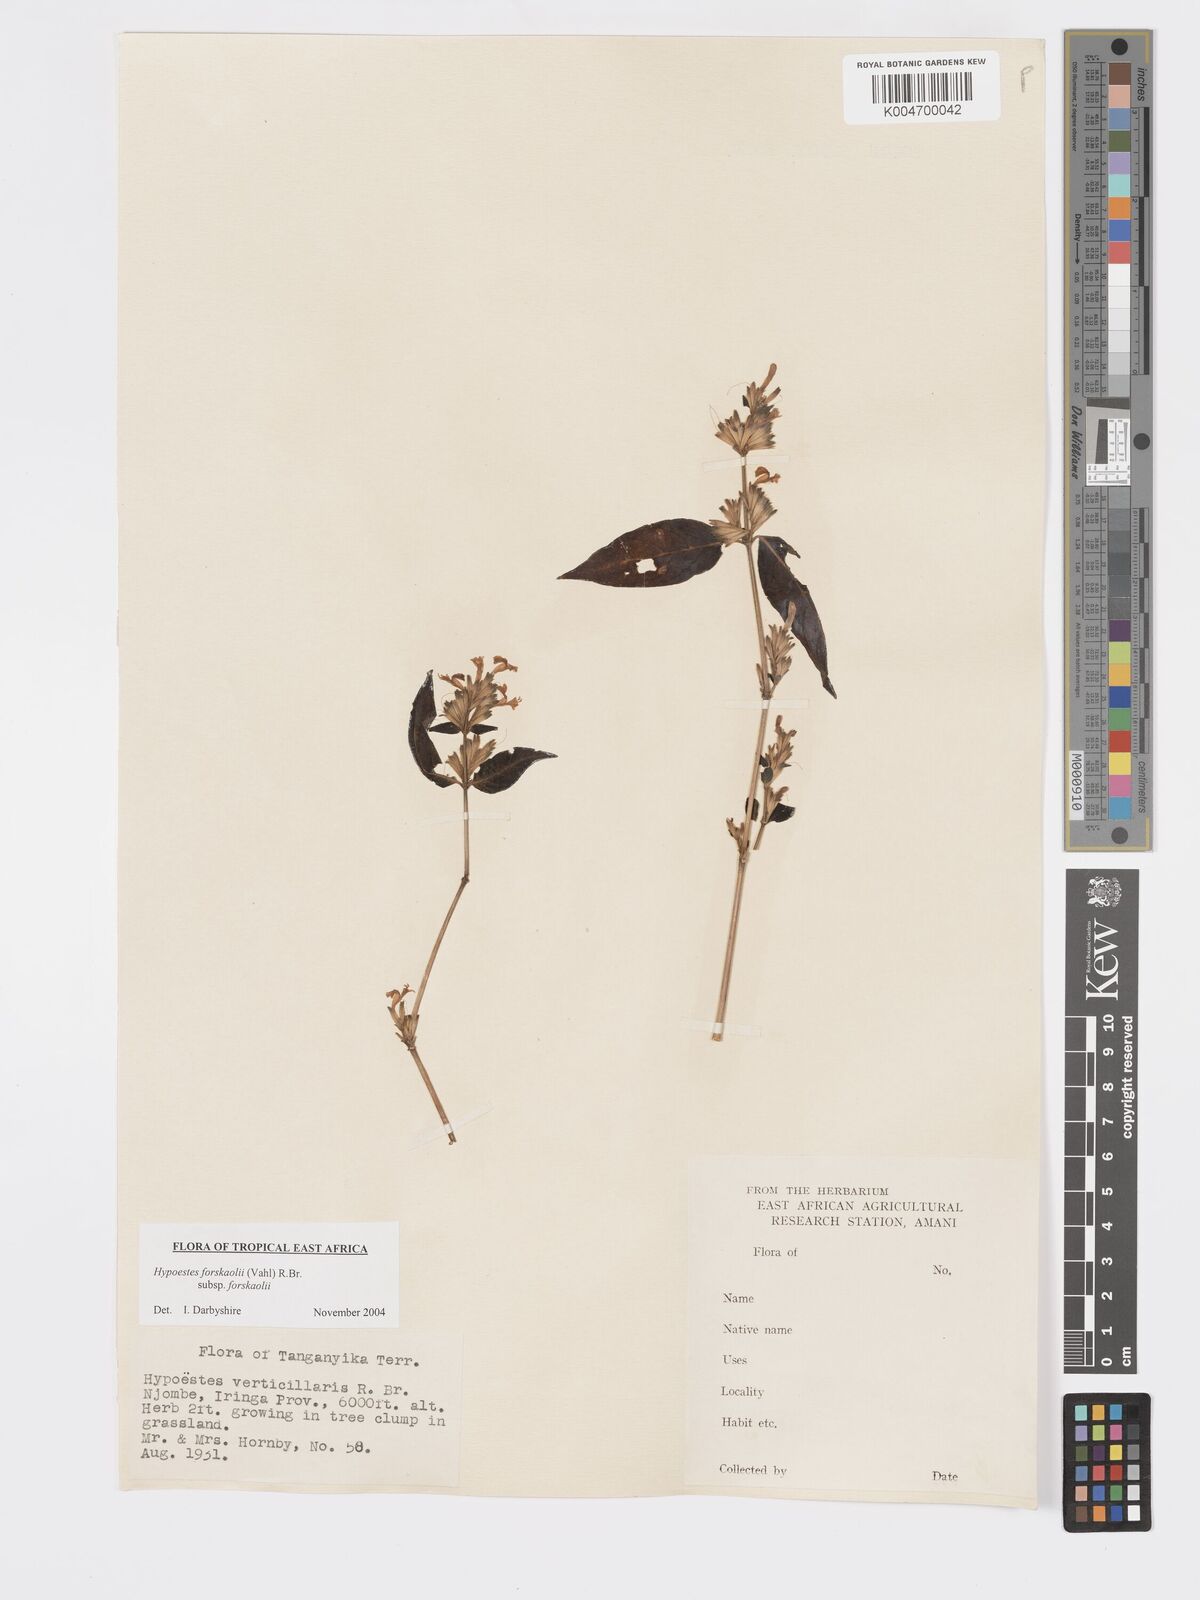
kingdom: Plantae
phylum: Tracheophyta
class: Magnoliopsida
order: Lamiales
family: Acanthaceae
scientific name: Acanthaceae
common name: Acanthaceae
